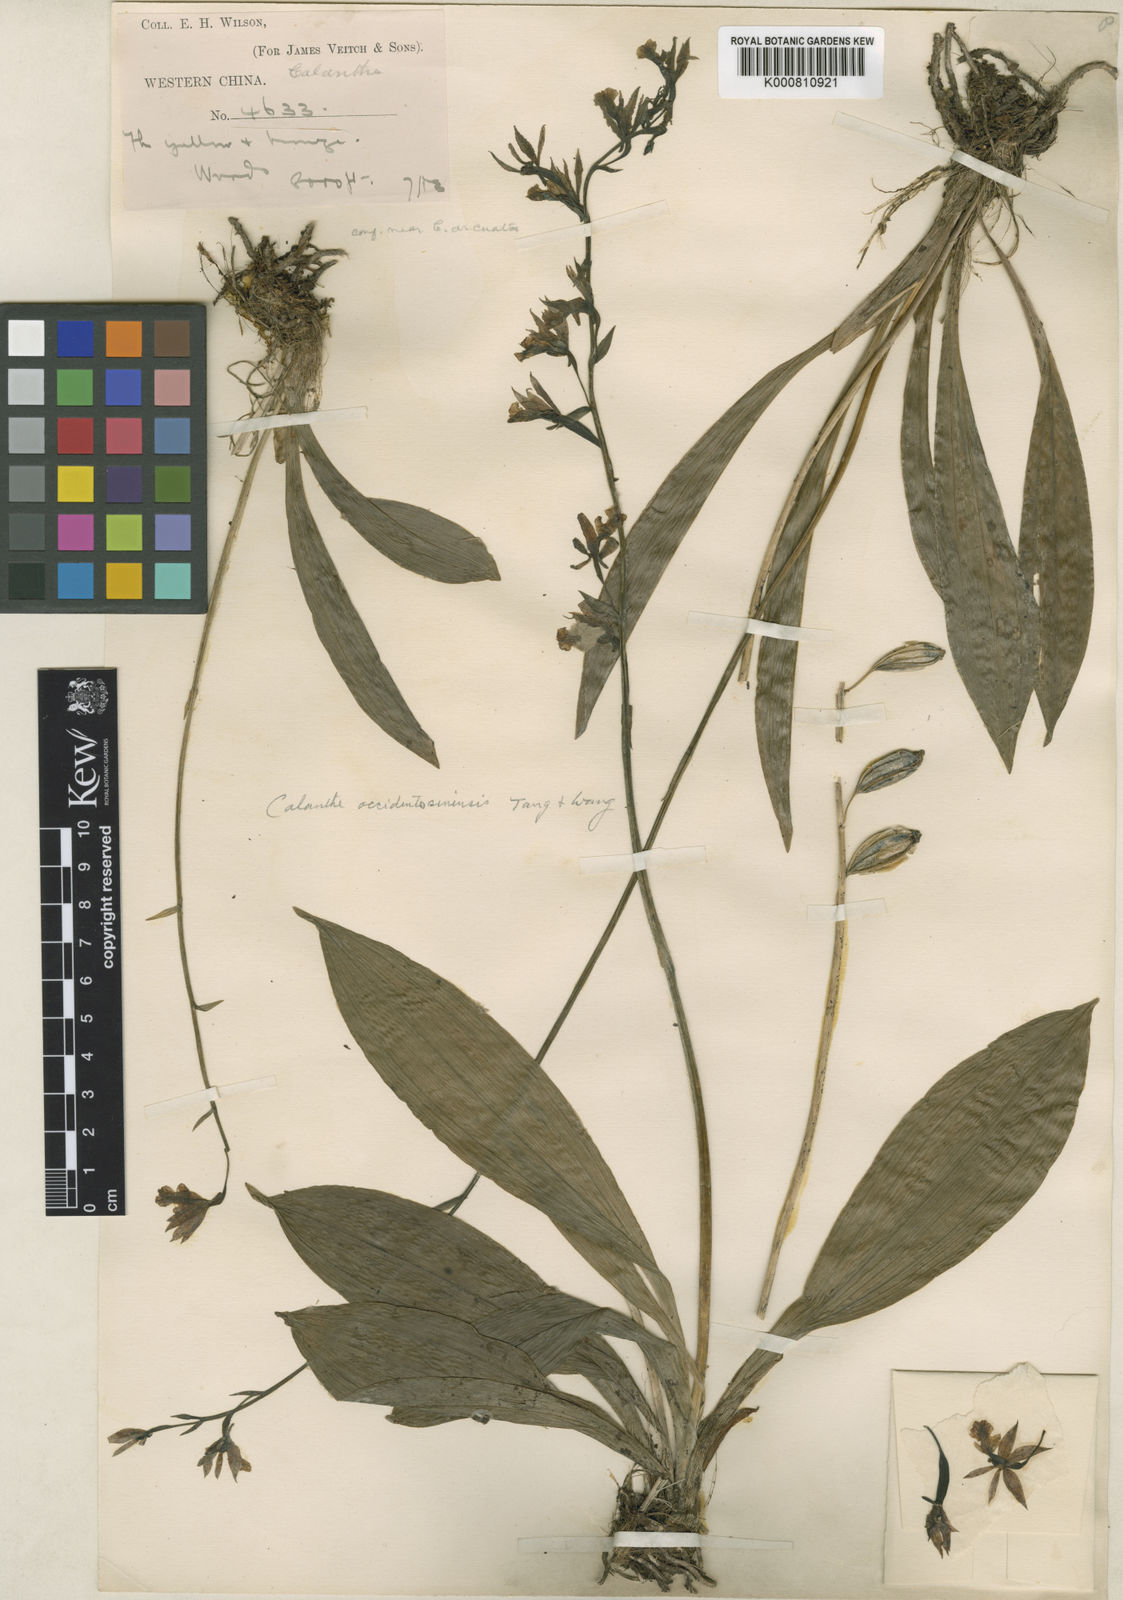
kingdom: Plantae
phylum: Tracheophyta
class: Liliopsida
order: Asparagales
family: Orchidaceae
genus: Calanthe
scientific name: Calanthe
